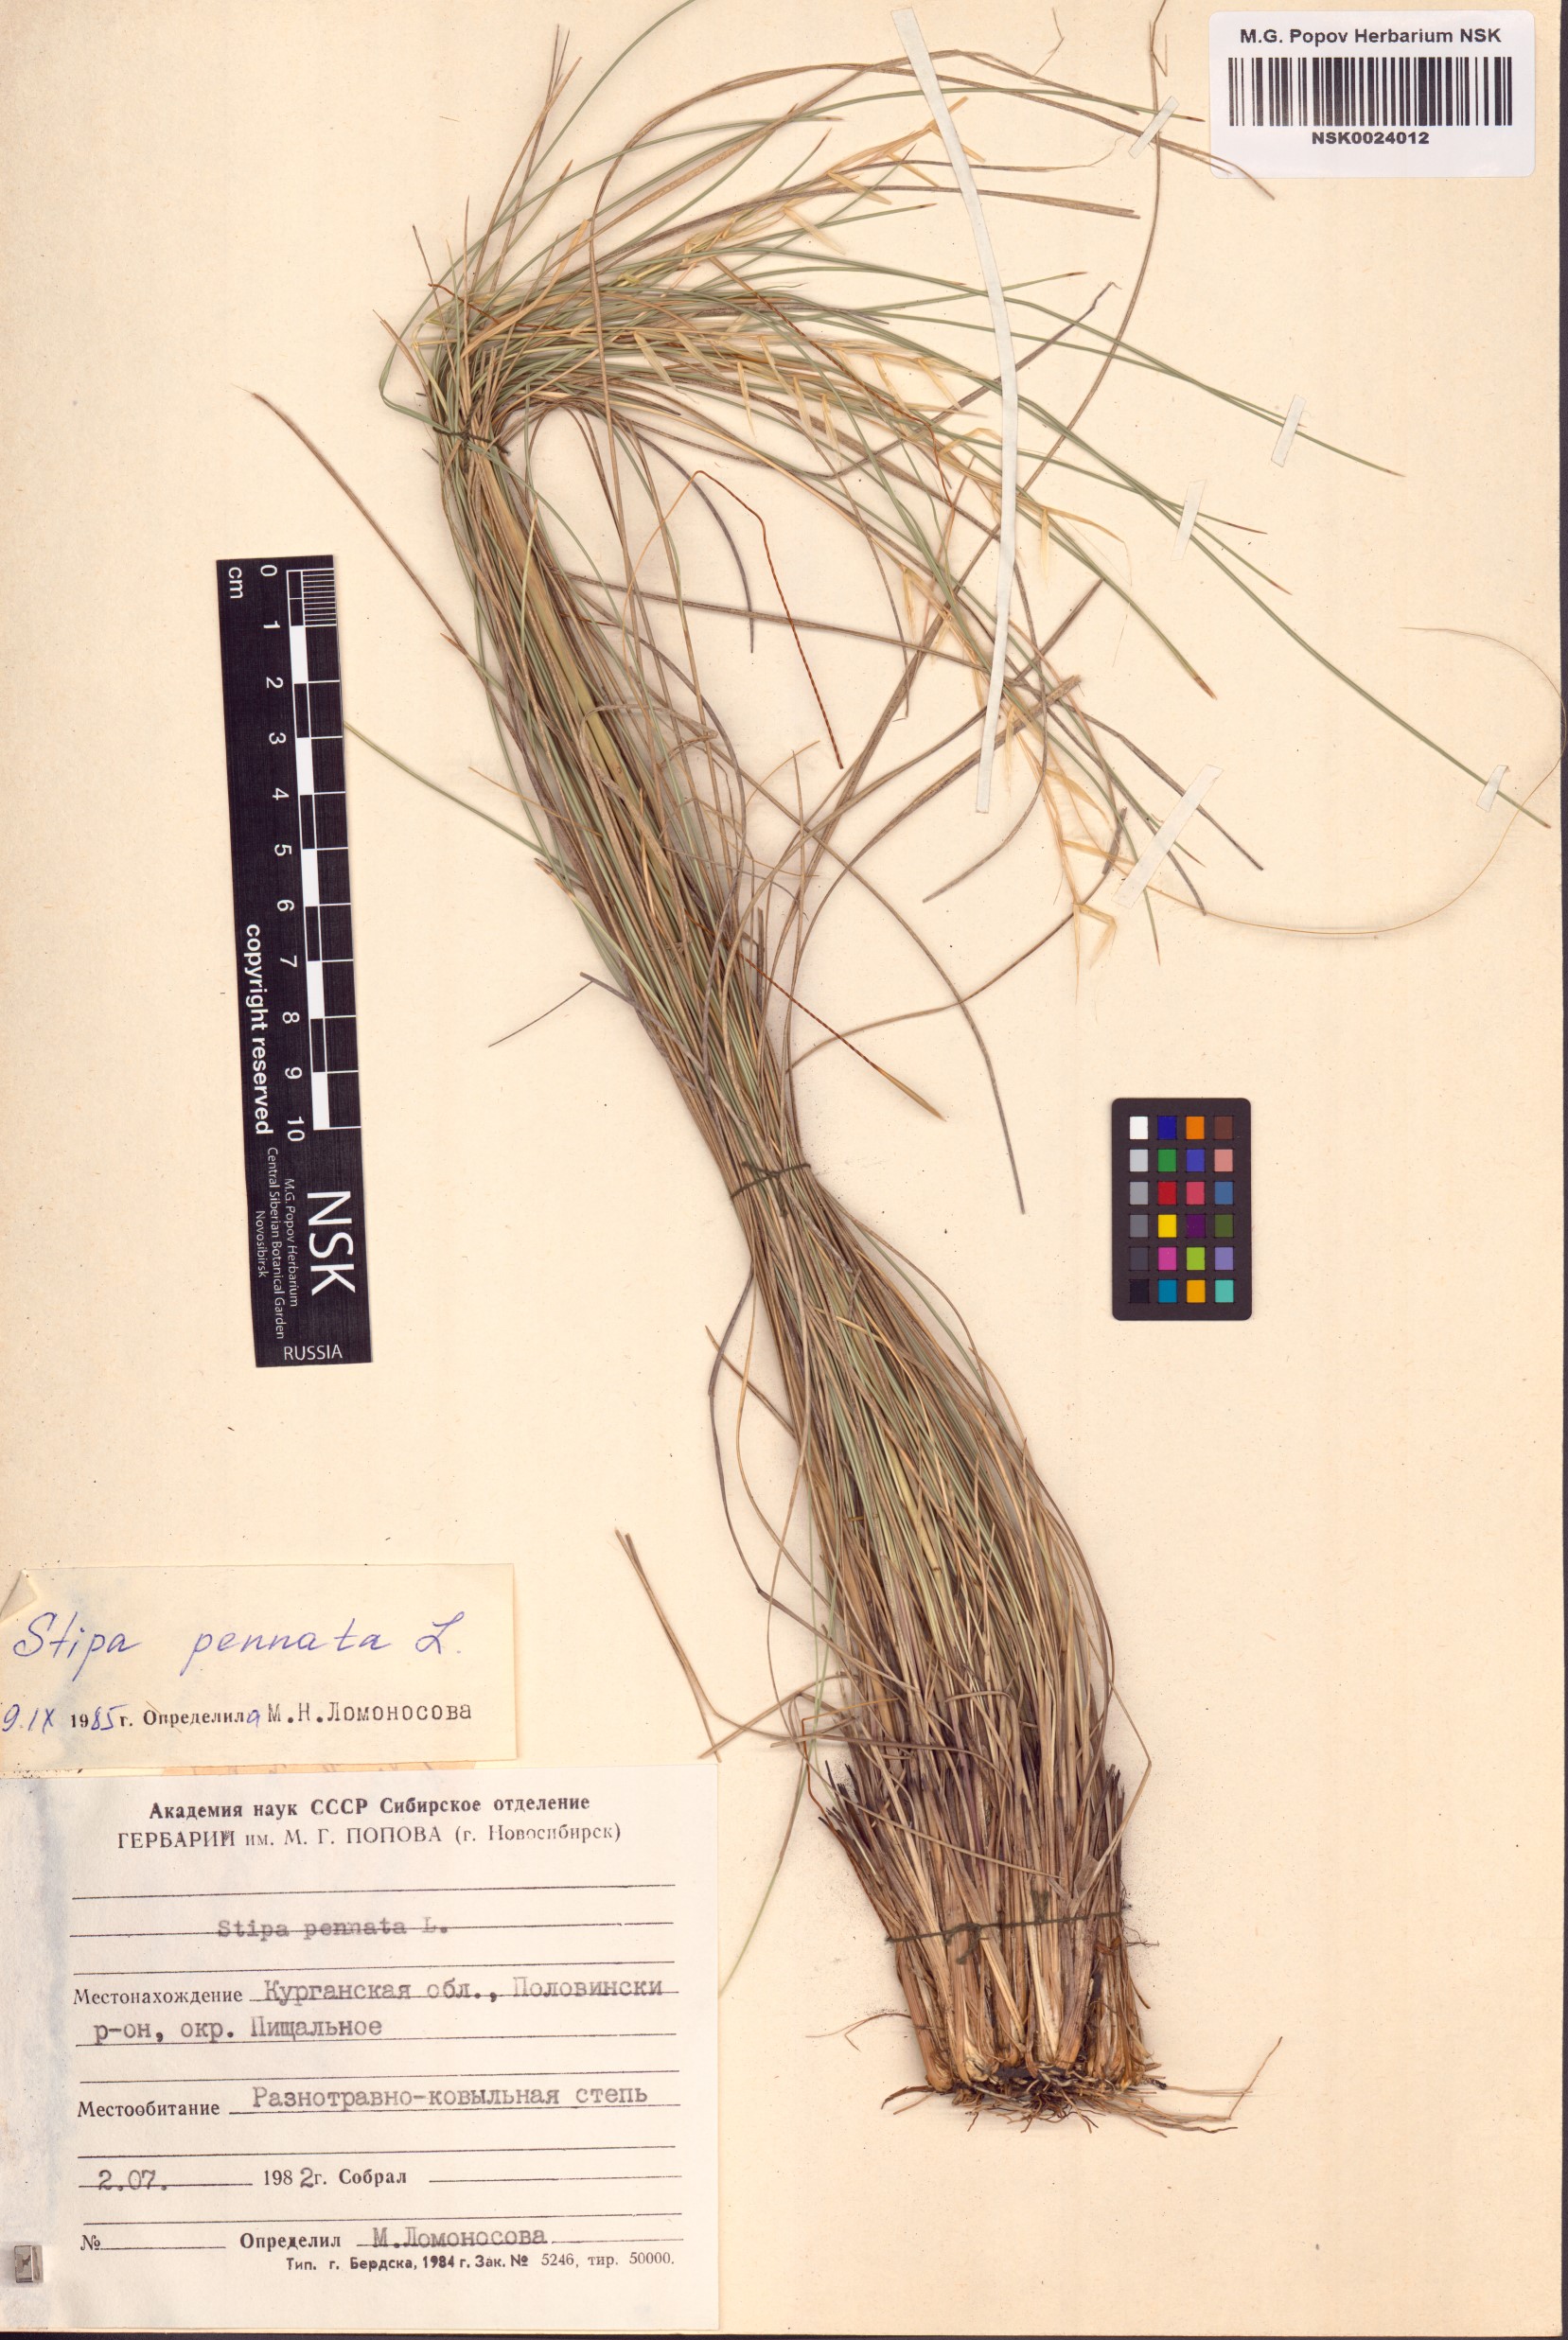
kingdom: Plantae
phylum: Tracheophyta
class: Liliopsida
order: Poales
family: Poaceae
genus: Stipa
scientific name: Stipa pennata
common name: European feather grass
